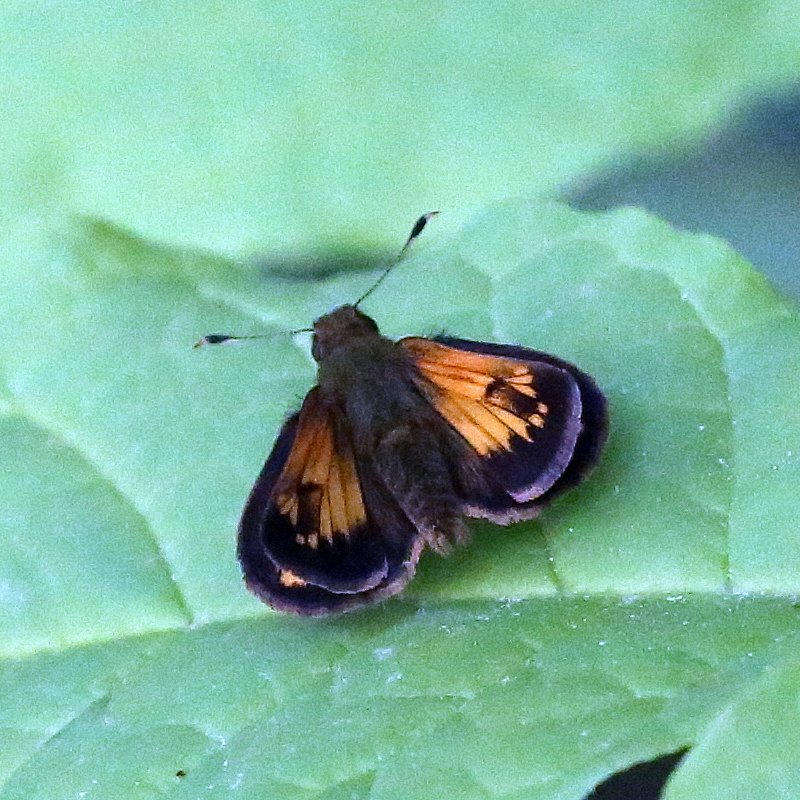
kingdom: Animalia
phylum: Arthropoda
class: Insecta
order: Lepidoptera
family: Hesperiidae
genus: Lon
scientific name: Lon hobomok
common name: Hobomok Skipper
